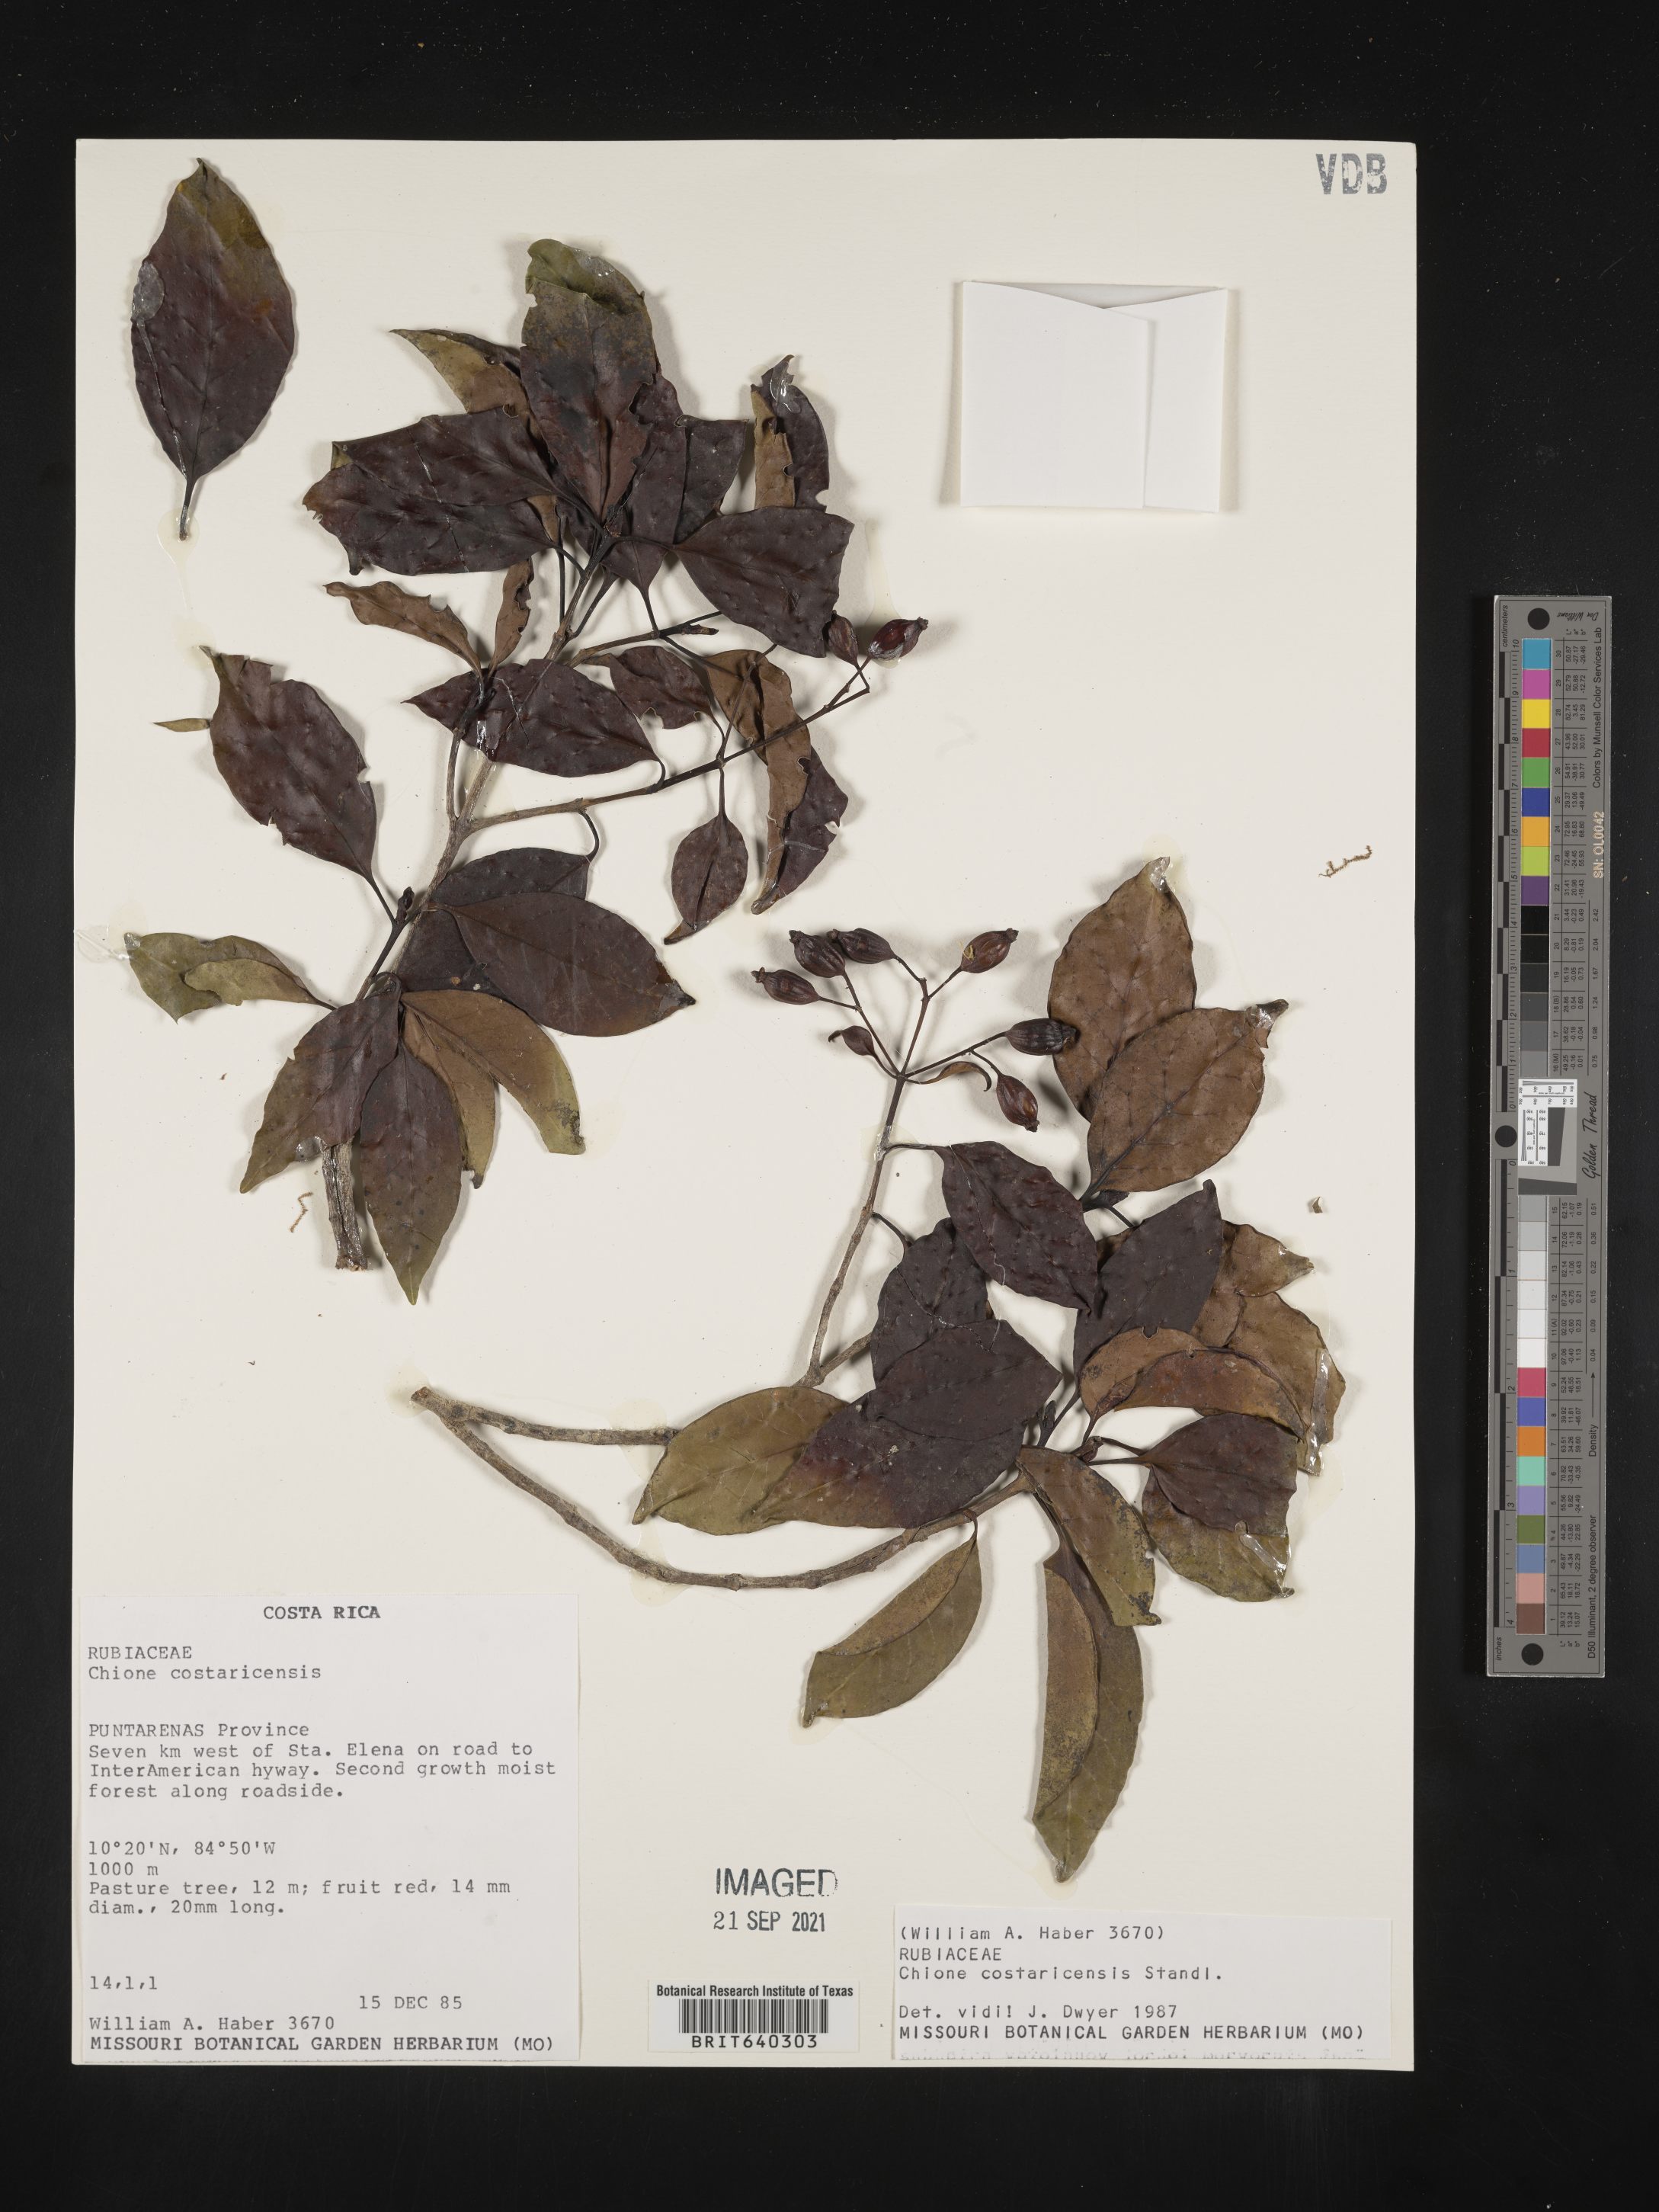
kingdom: Plantae
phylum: Tracheophyta
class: Magnoliopsida
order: Gentianales
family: Rubiaceae
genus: Chione
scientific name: Chione
